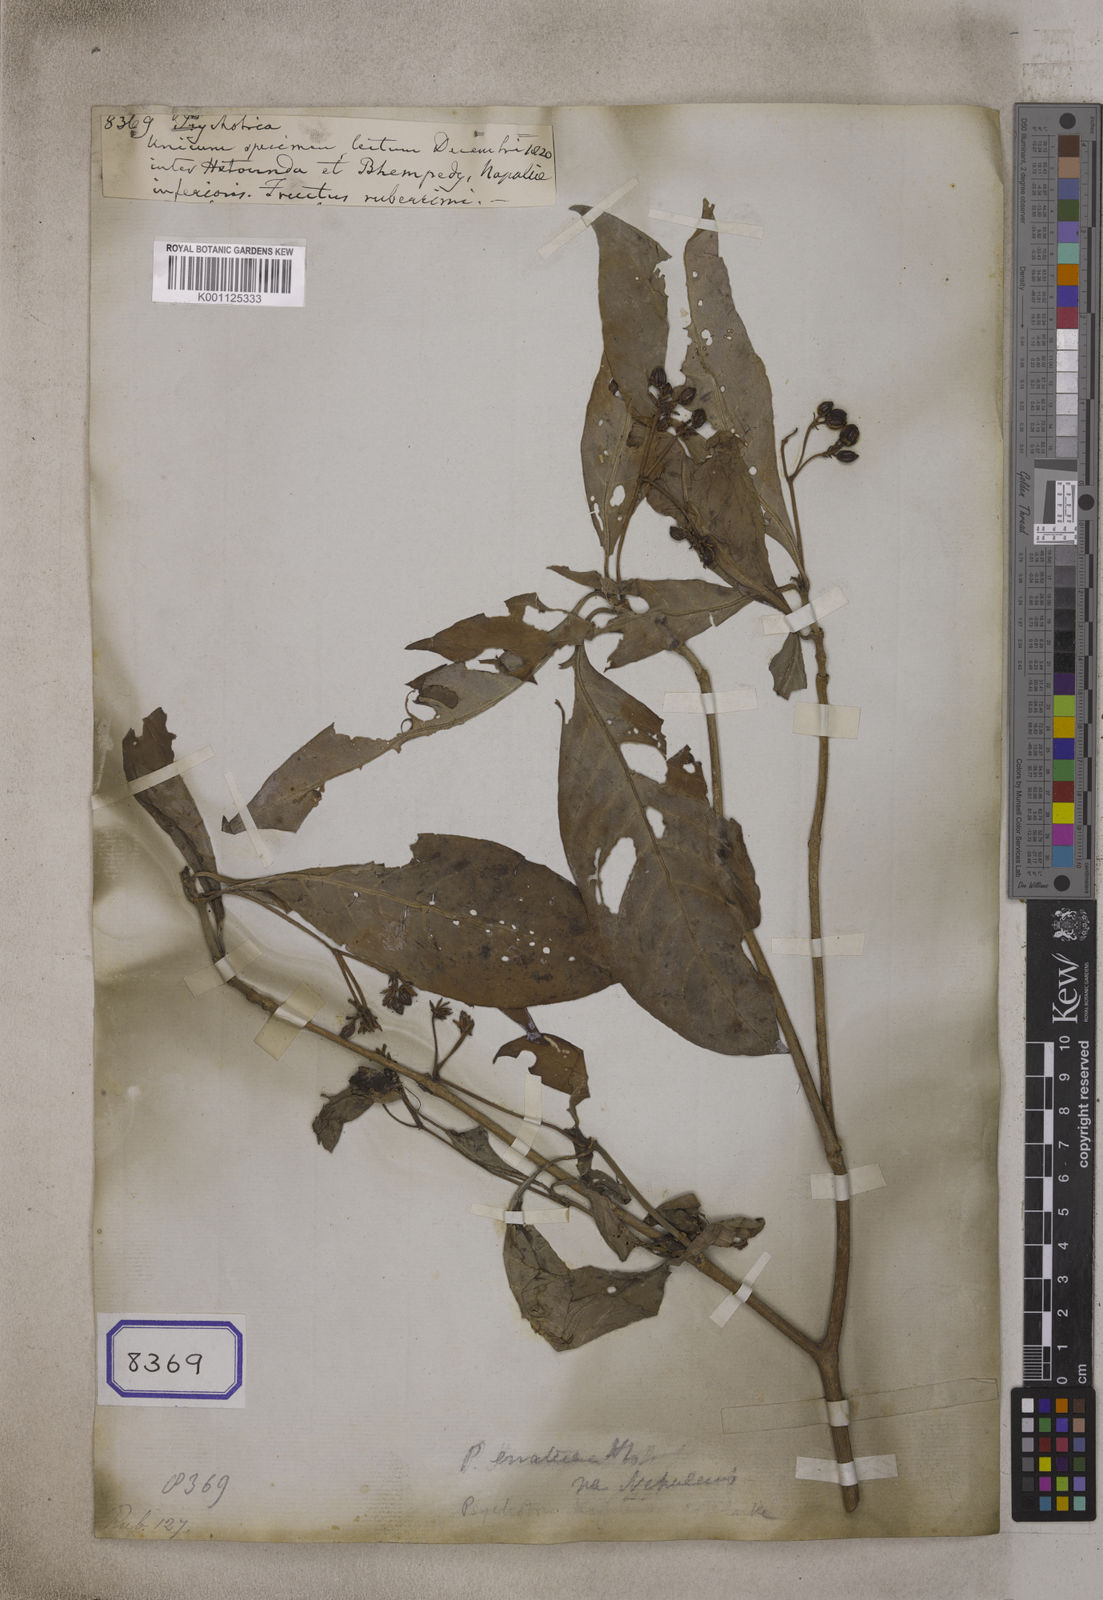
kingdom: Plantae
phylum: Tracheophyta
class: Magnoliopsida
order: Gentianales
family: Rubiaceae
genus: Psychotria
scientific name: Psychotria
